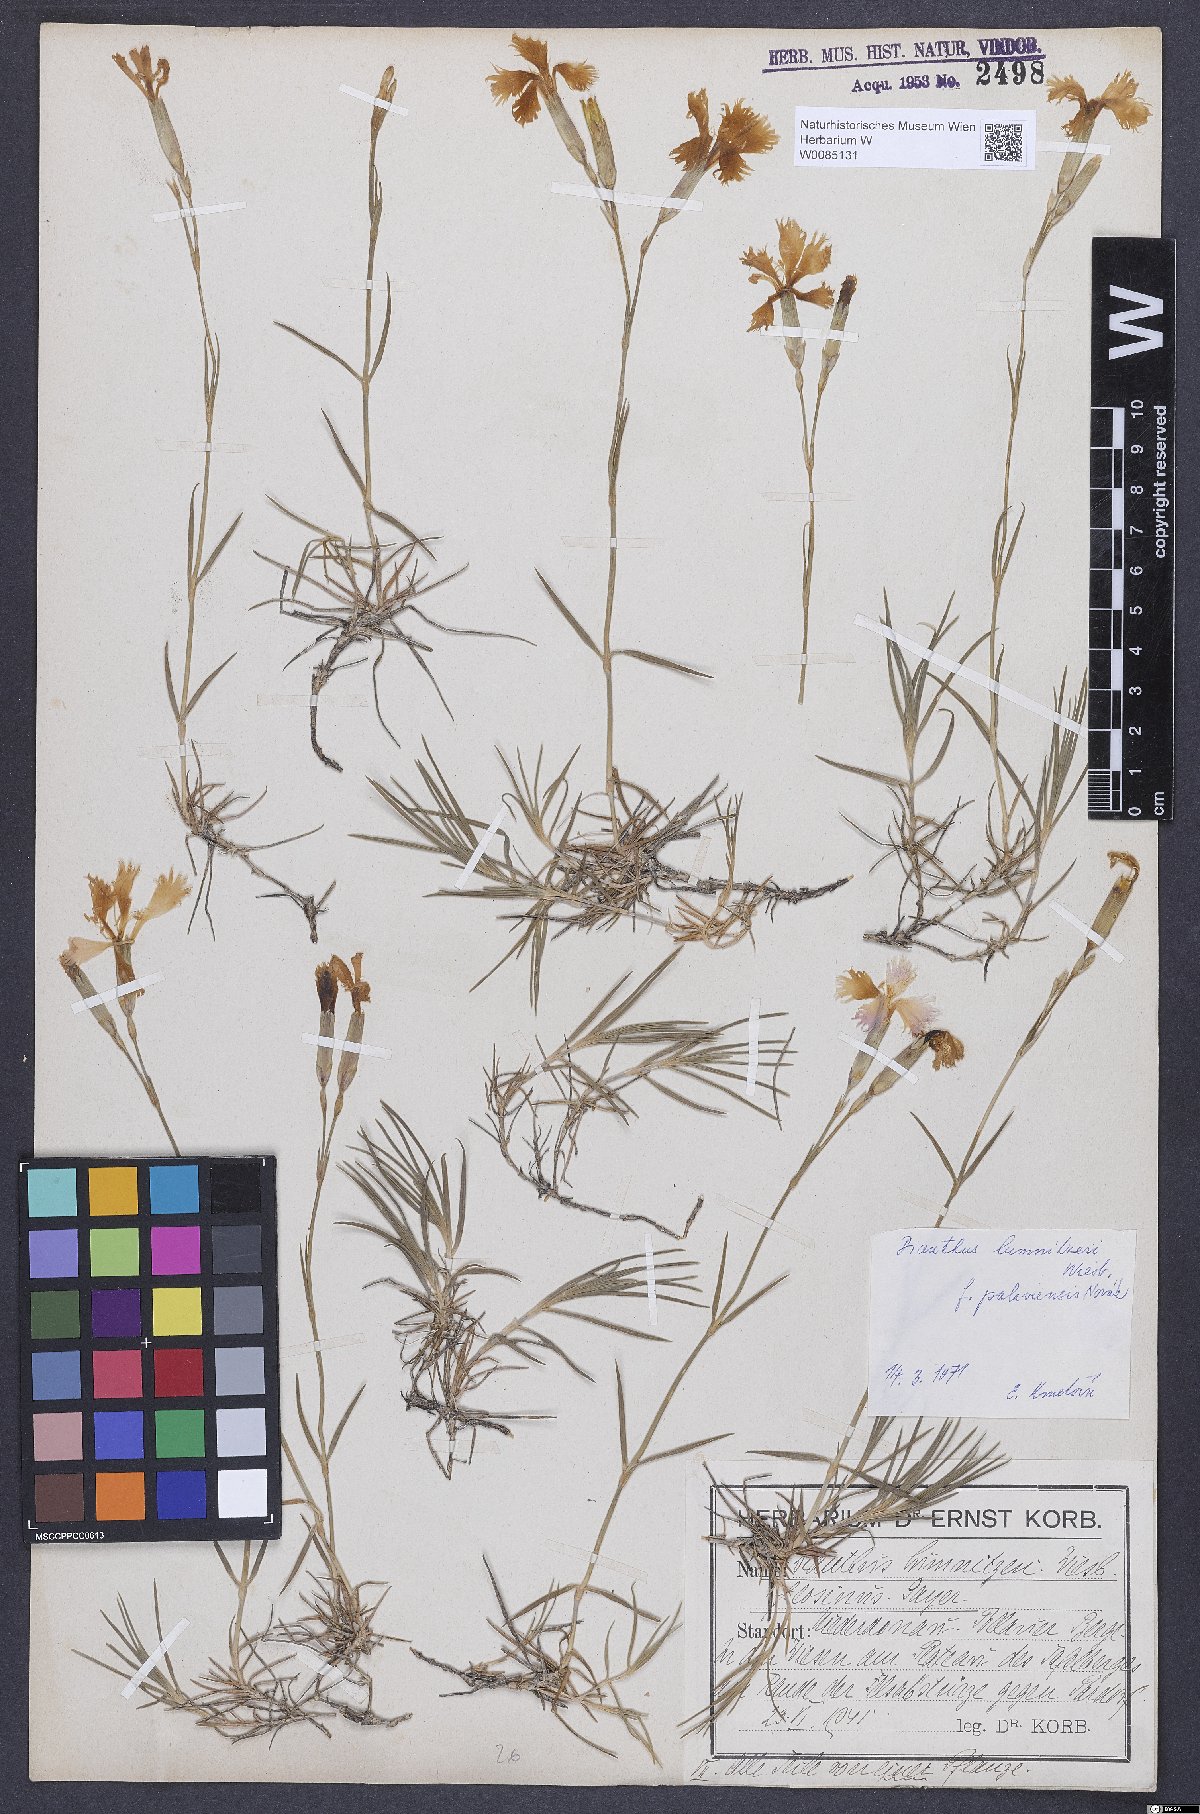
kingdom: Plantae
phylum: Tracheophyta
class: Magnoliopsida
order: Caryophyllales
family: Caryophyllaceae
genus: Dianthus
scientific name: Dianthus praecox
